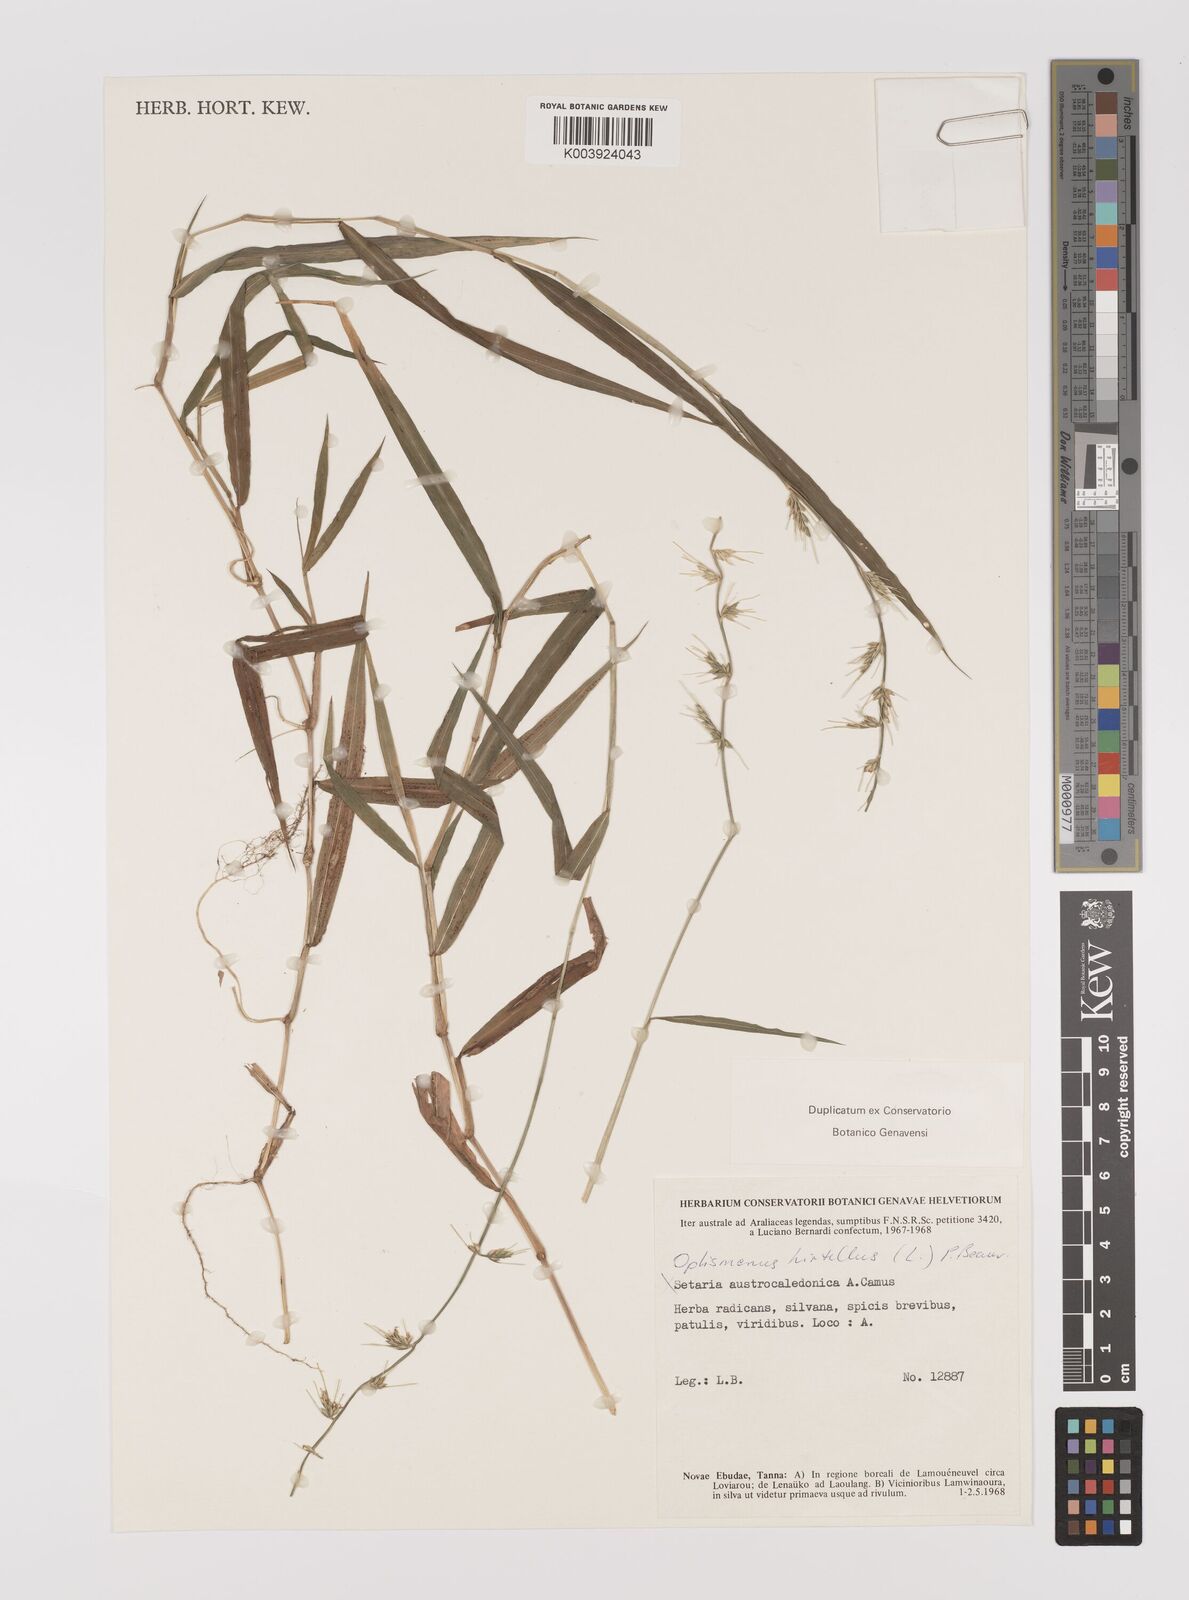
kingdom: Plantae
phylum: Tracheophyta
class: Liliopsida
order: Poales
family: Poaceae
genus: Oplismenus
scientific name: Oplismenus hirtellus
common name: Basketgrass
